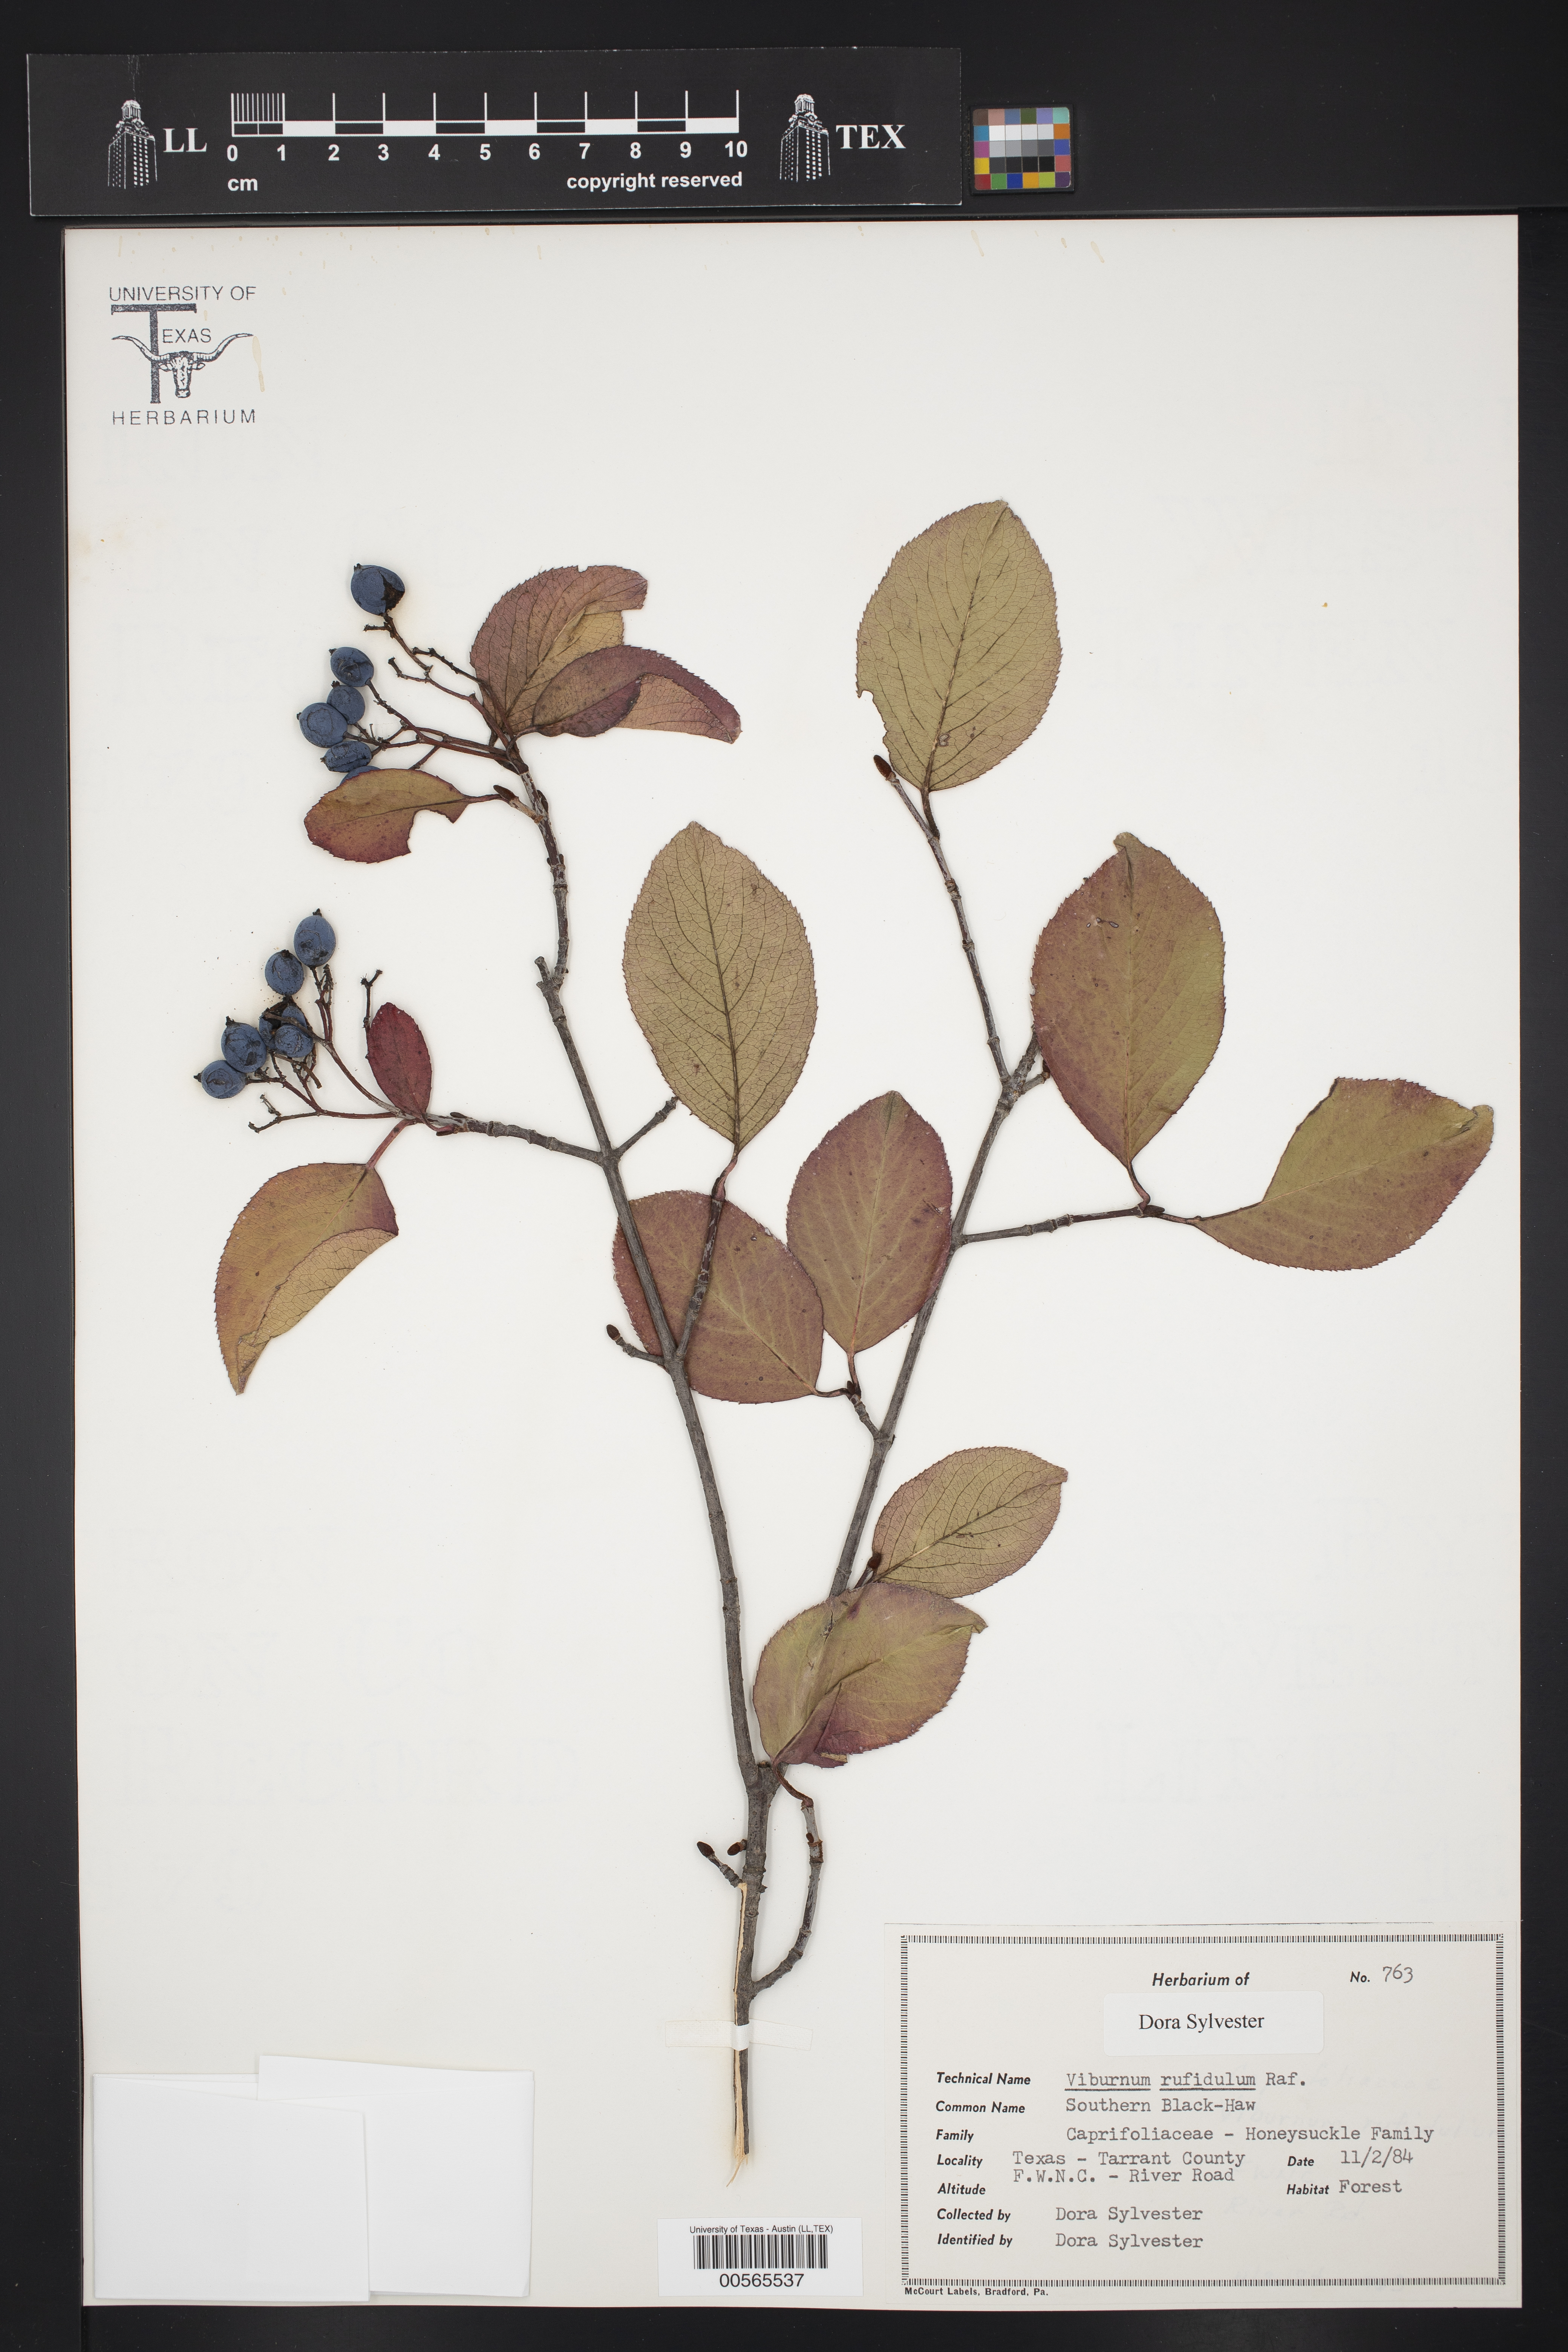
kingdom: Plantae
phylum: Tracheophyta
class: Magnoliopsida
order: Dipsacales
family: Viburnaceae
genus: Viburnum
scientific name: Viburnum rufidulum
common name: Blue haw
